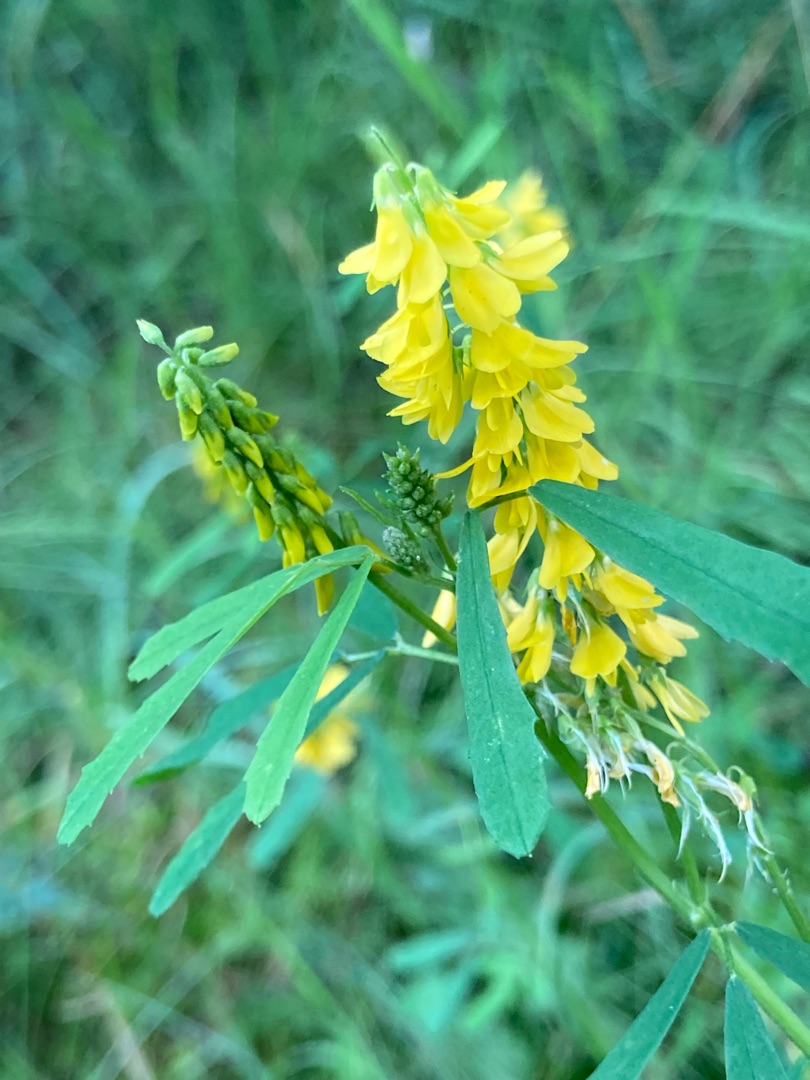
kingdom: Plantae
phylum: Tracheophyta
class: Magnoliopsida
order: Fabales
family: Fabaceae
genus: Melilotus
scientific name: Melilotus altissimus
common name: Høj stenkløver
